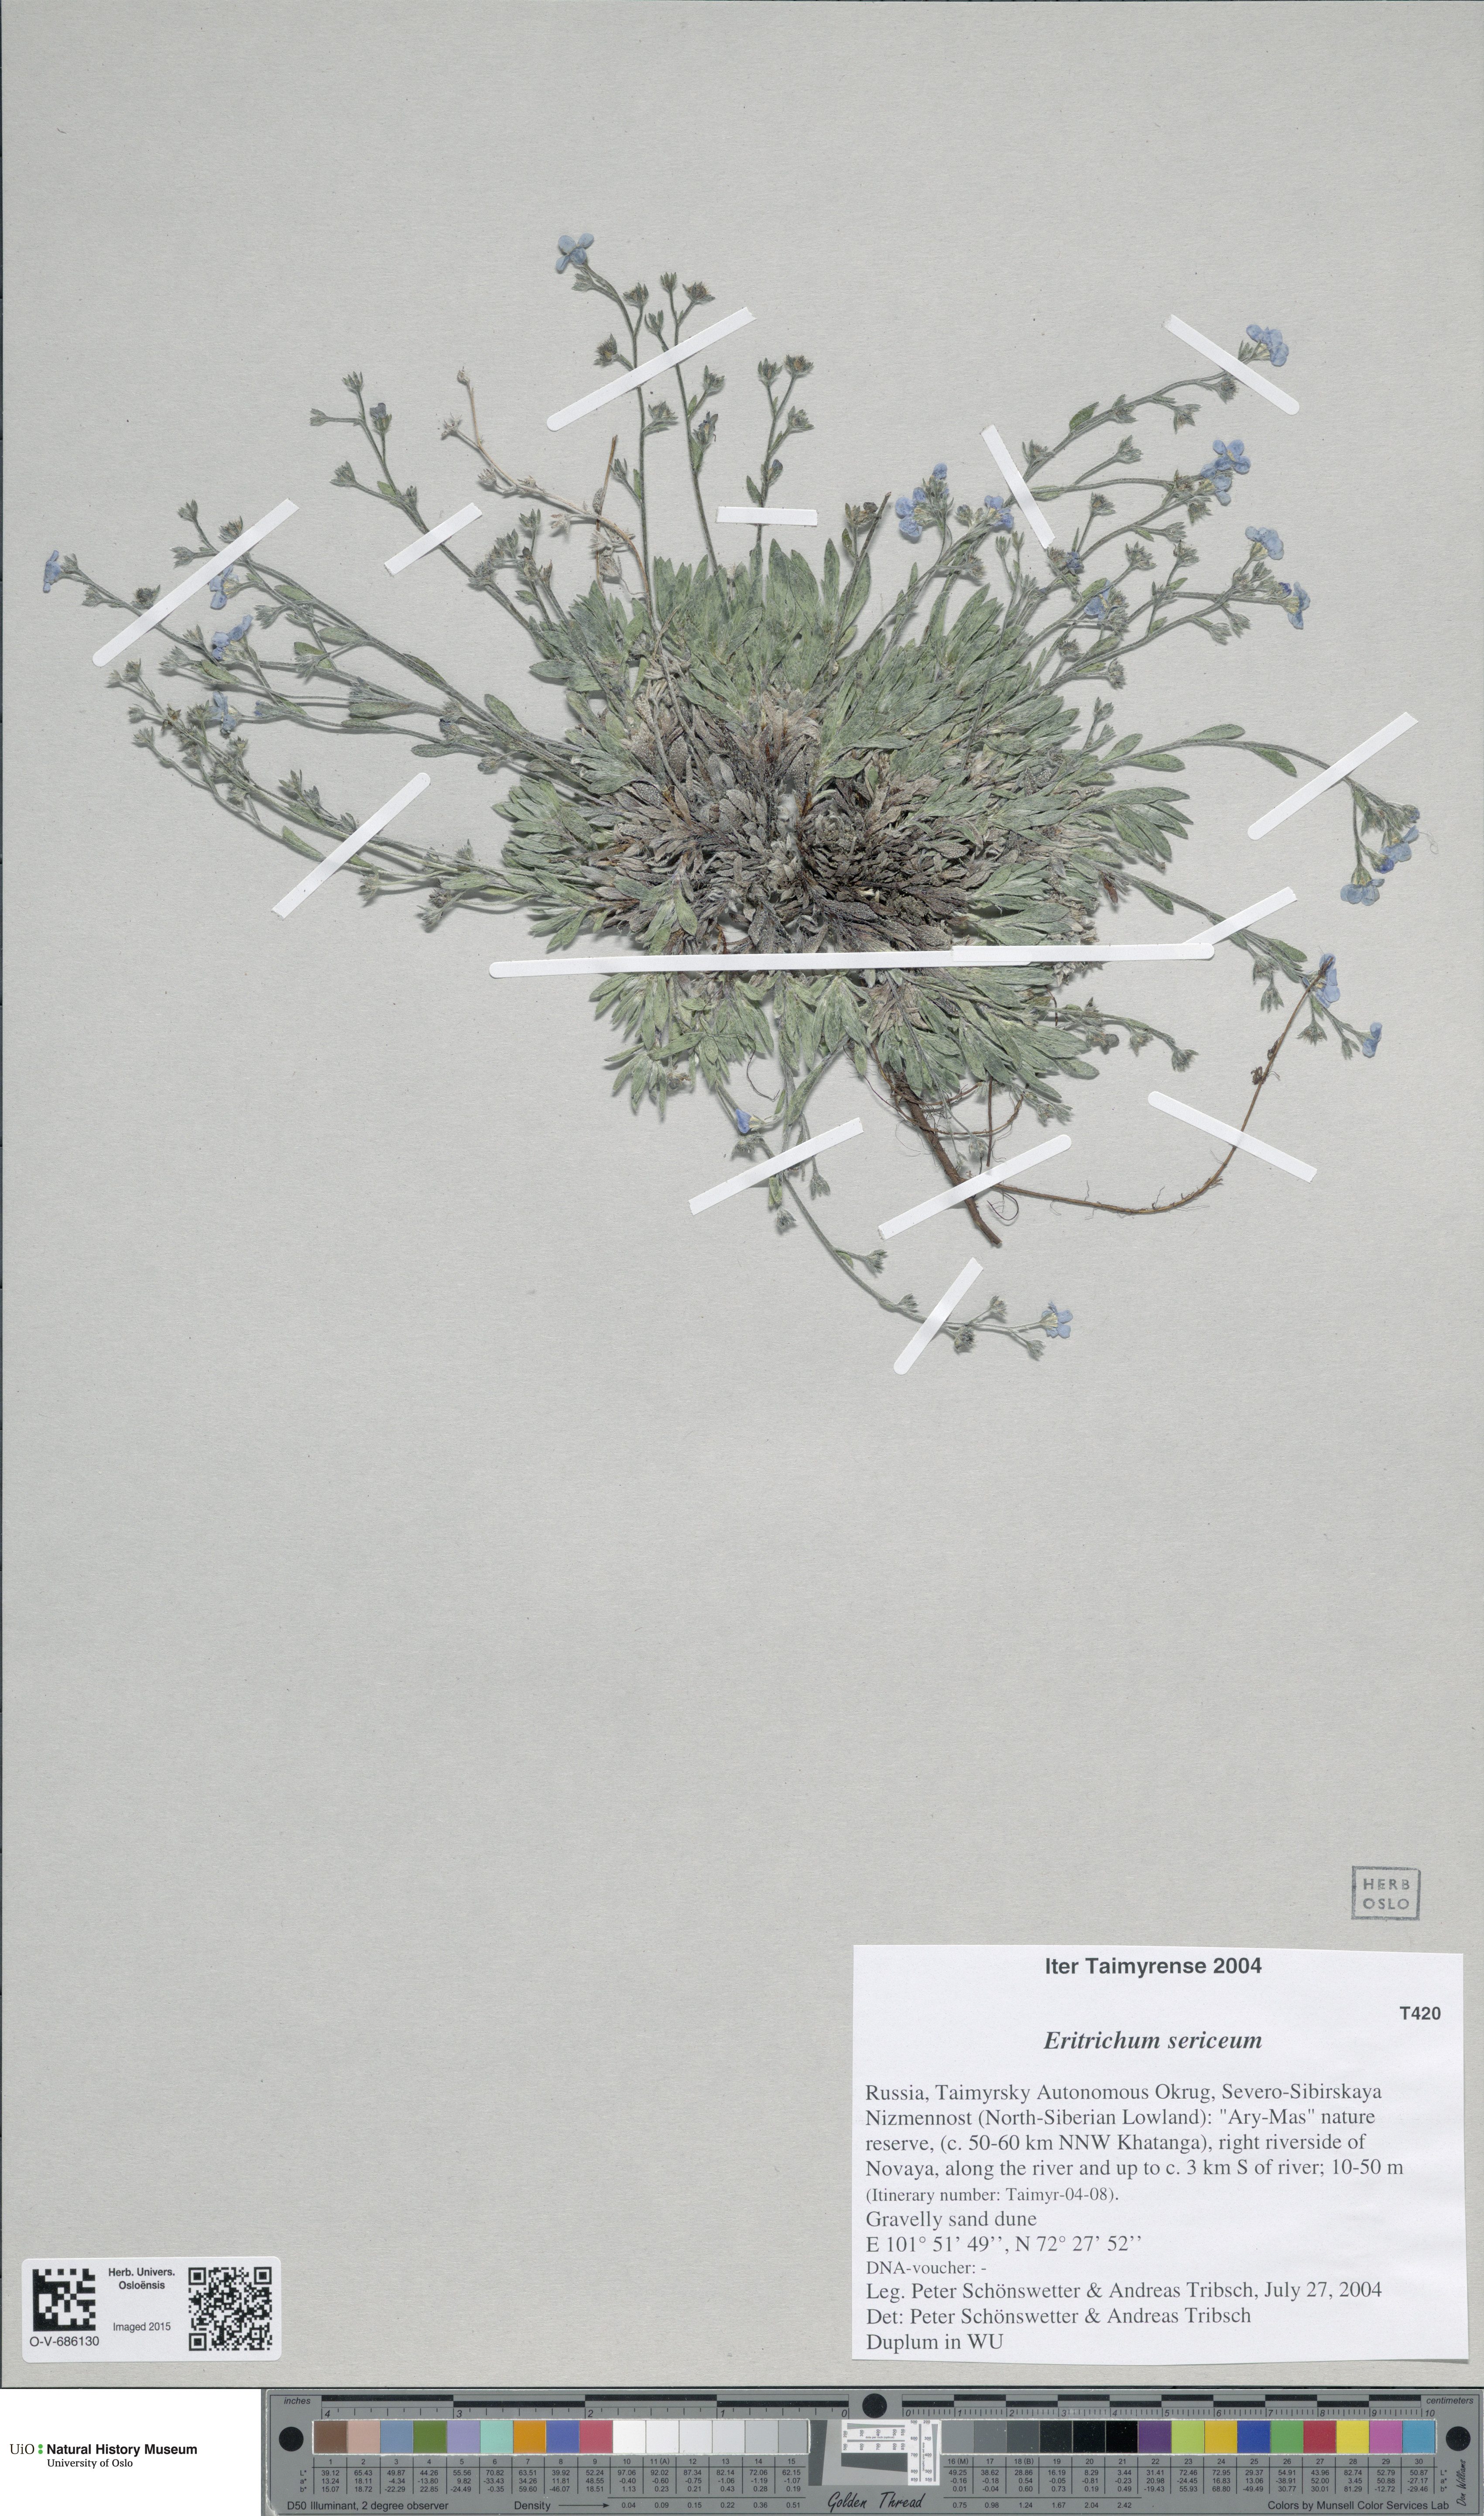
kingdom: Plantae
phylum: Tracheophyta
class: Magnoliopsida
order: Boraginales
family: Boraginaceae
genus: Eritrichium
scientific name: Eritrichium sericeum
